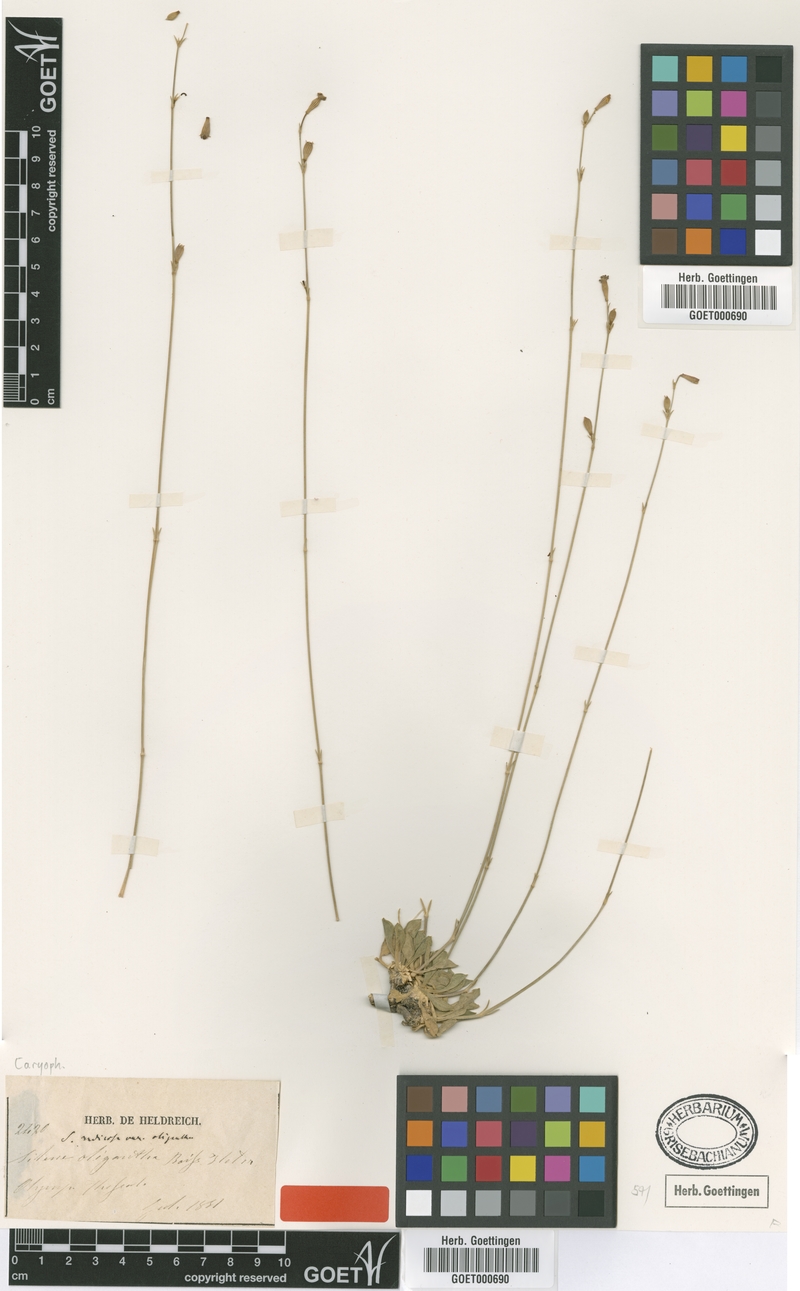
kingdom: Plantae
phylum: Tracheophyta
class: Magnoliopsida
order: Caryophyllales
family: Caryophyllaceae
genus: Silene
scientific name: Silene oligantha
